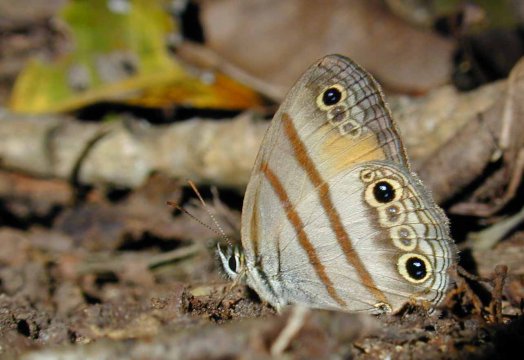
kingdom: Animalia
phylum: Arthropoda
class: Insecta
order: Lepidoptera
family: Nymphalidae
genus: Argyreuptychia
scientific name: Argyreuptychia palladia
